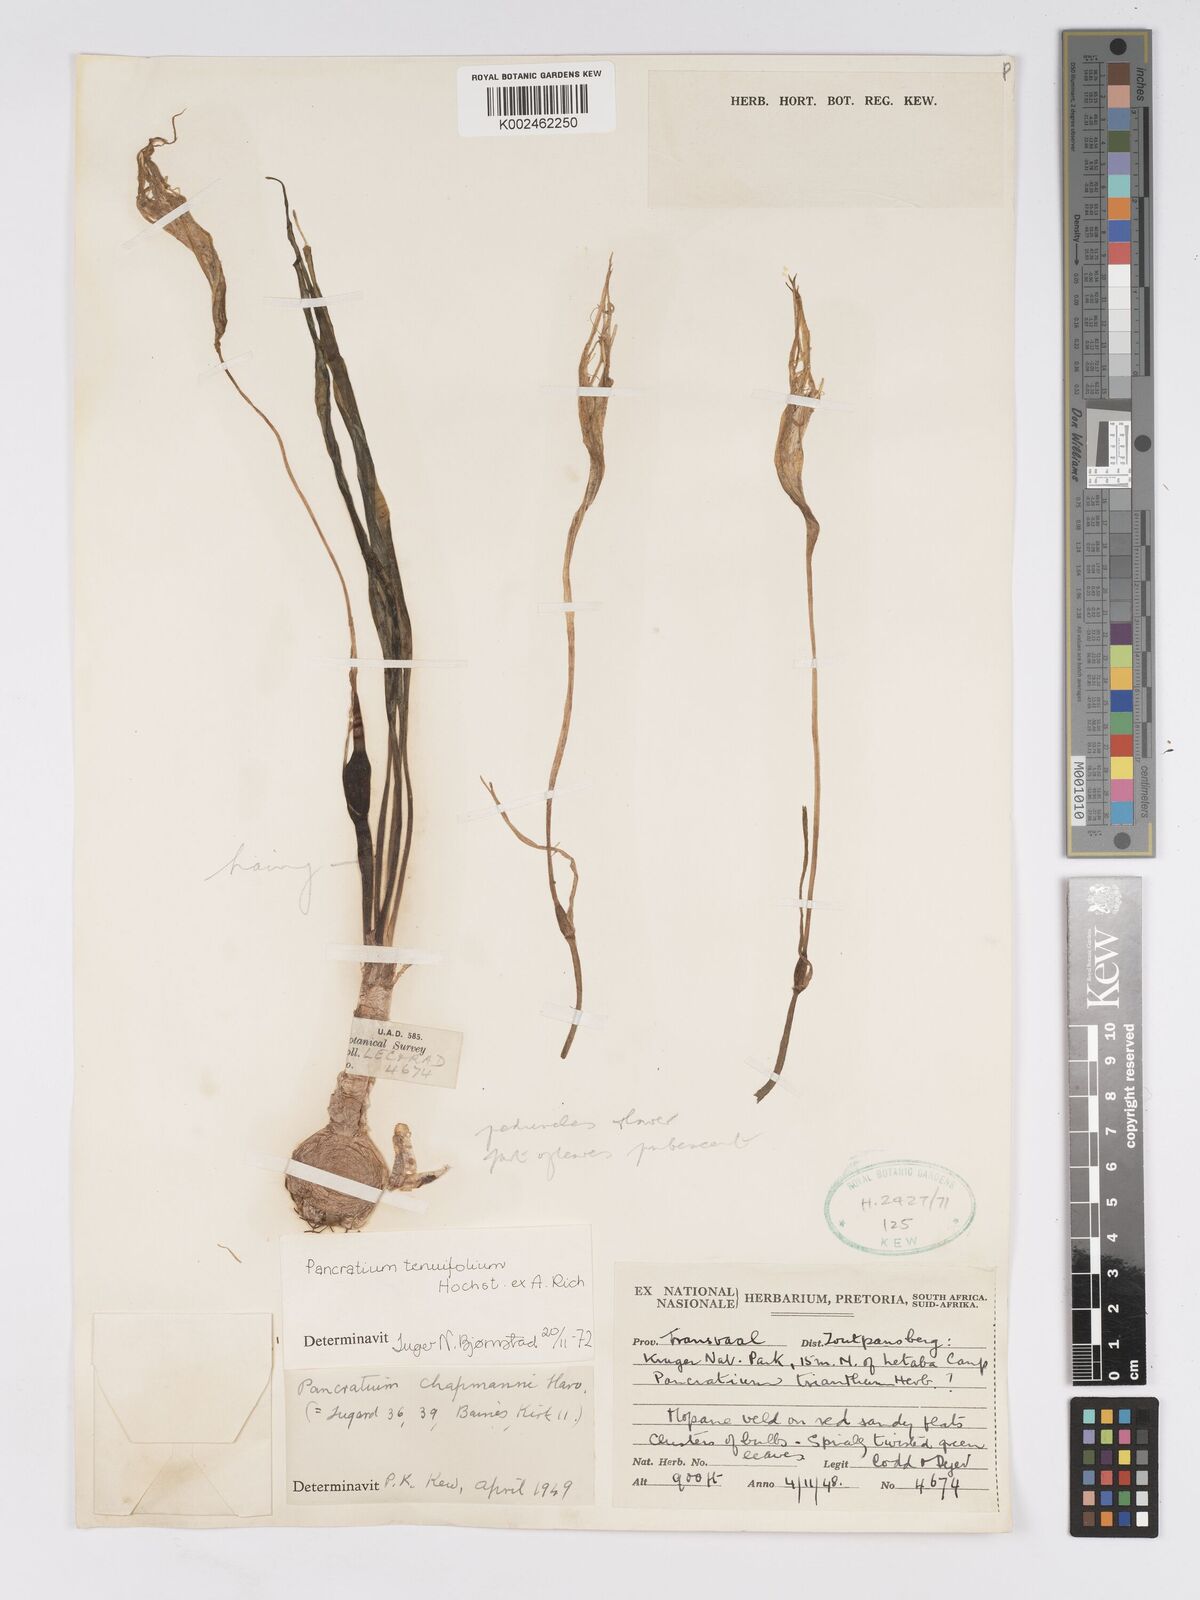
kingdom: Plantae
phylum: Tracheophyta
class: Liliopsida
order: Asparagales
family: Amaryllidaceae
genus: Pancratium
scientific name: Pancratium tenuifolium
